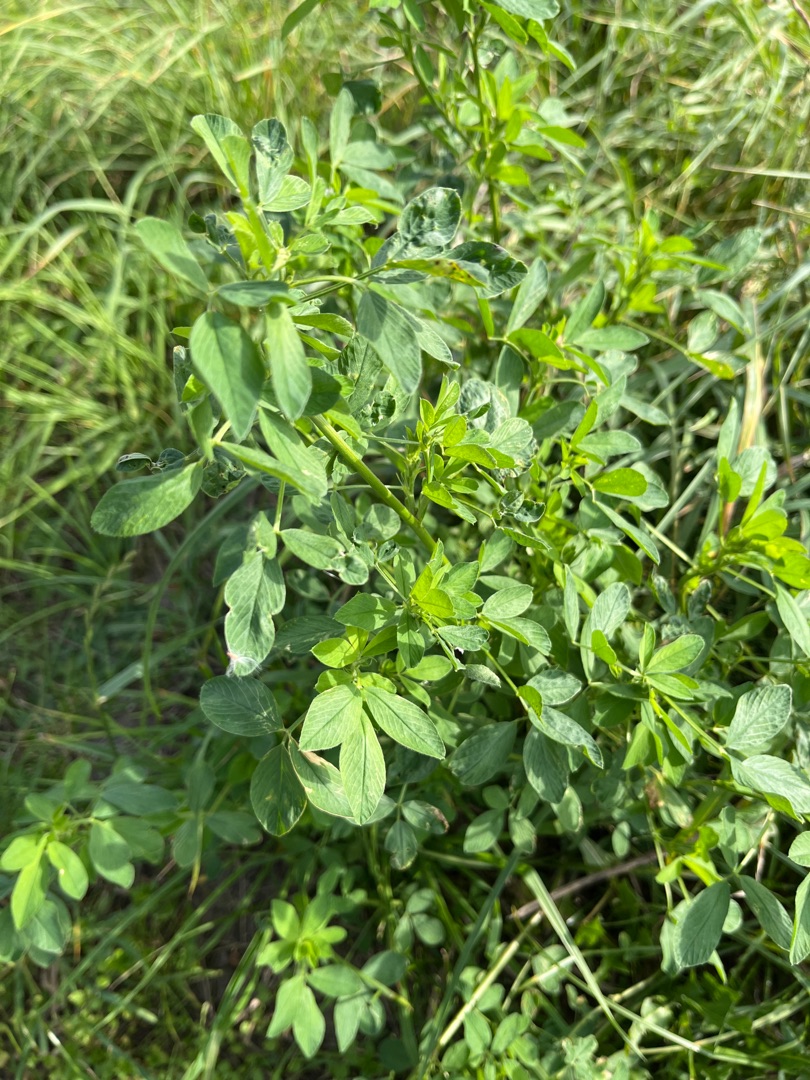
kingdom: Plantae
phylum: Tracheophyta
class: Magnoliopsida
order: Fabales
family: Fabaceae
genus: Medicago
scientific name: Medicago sativa
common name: Lucerne
